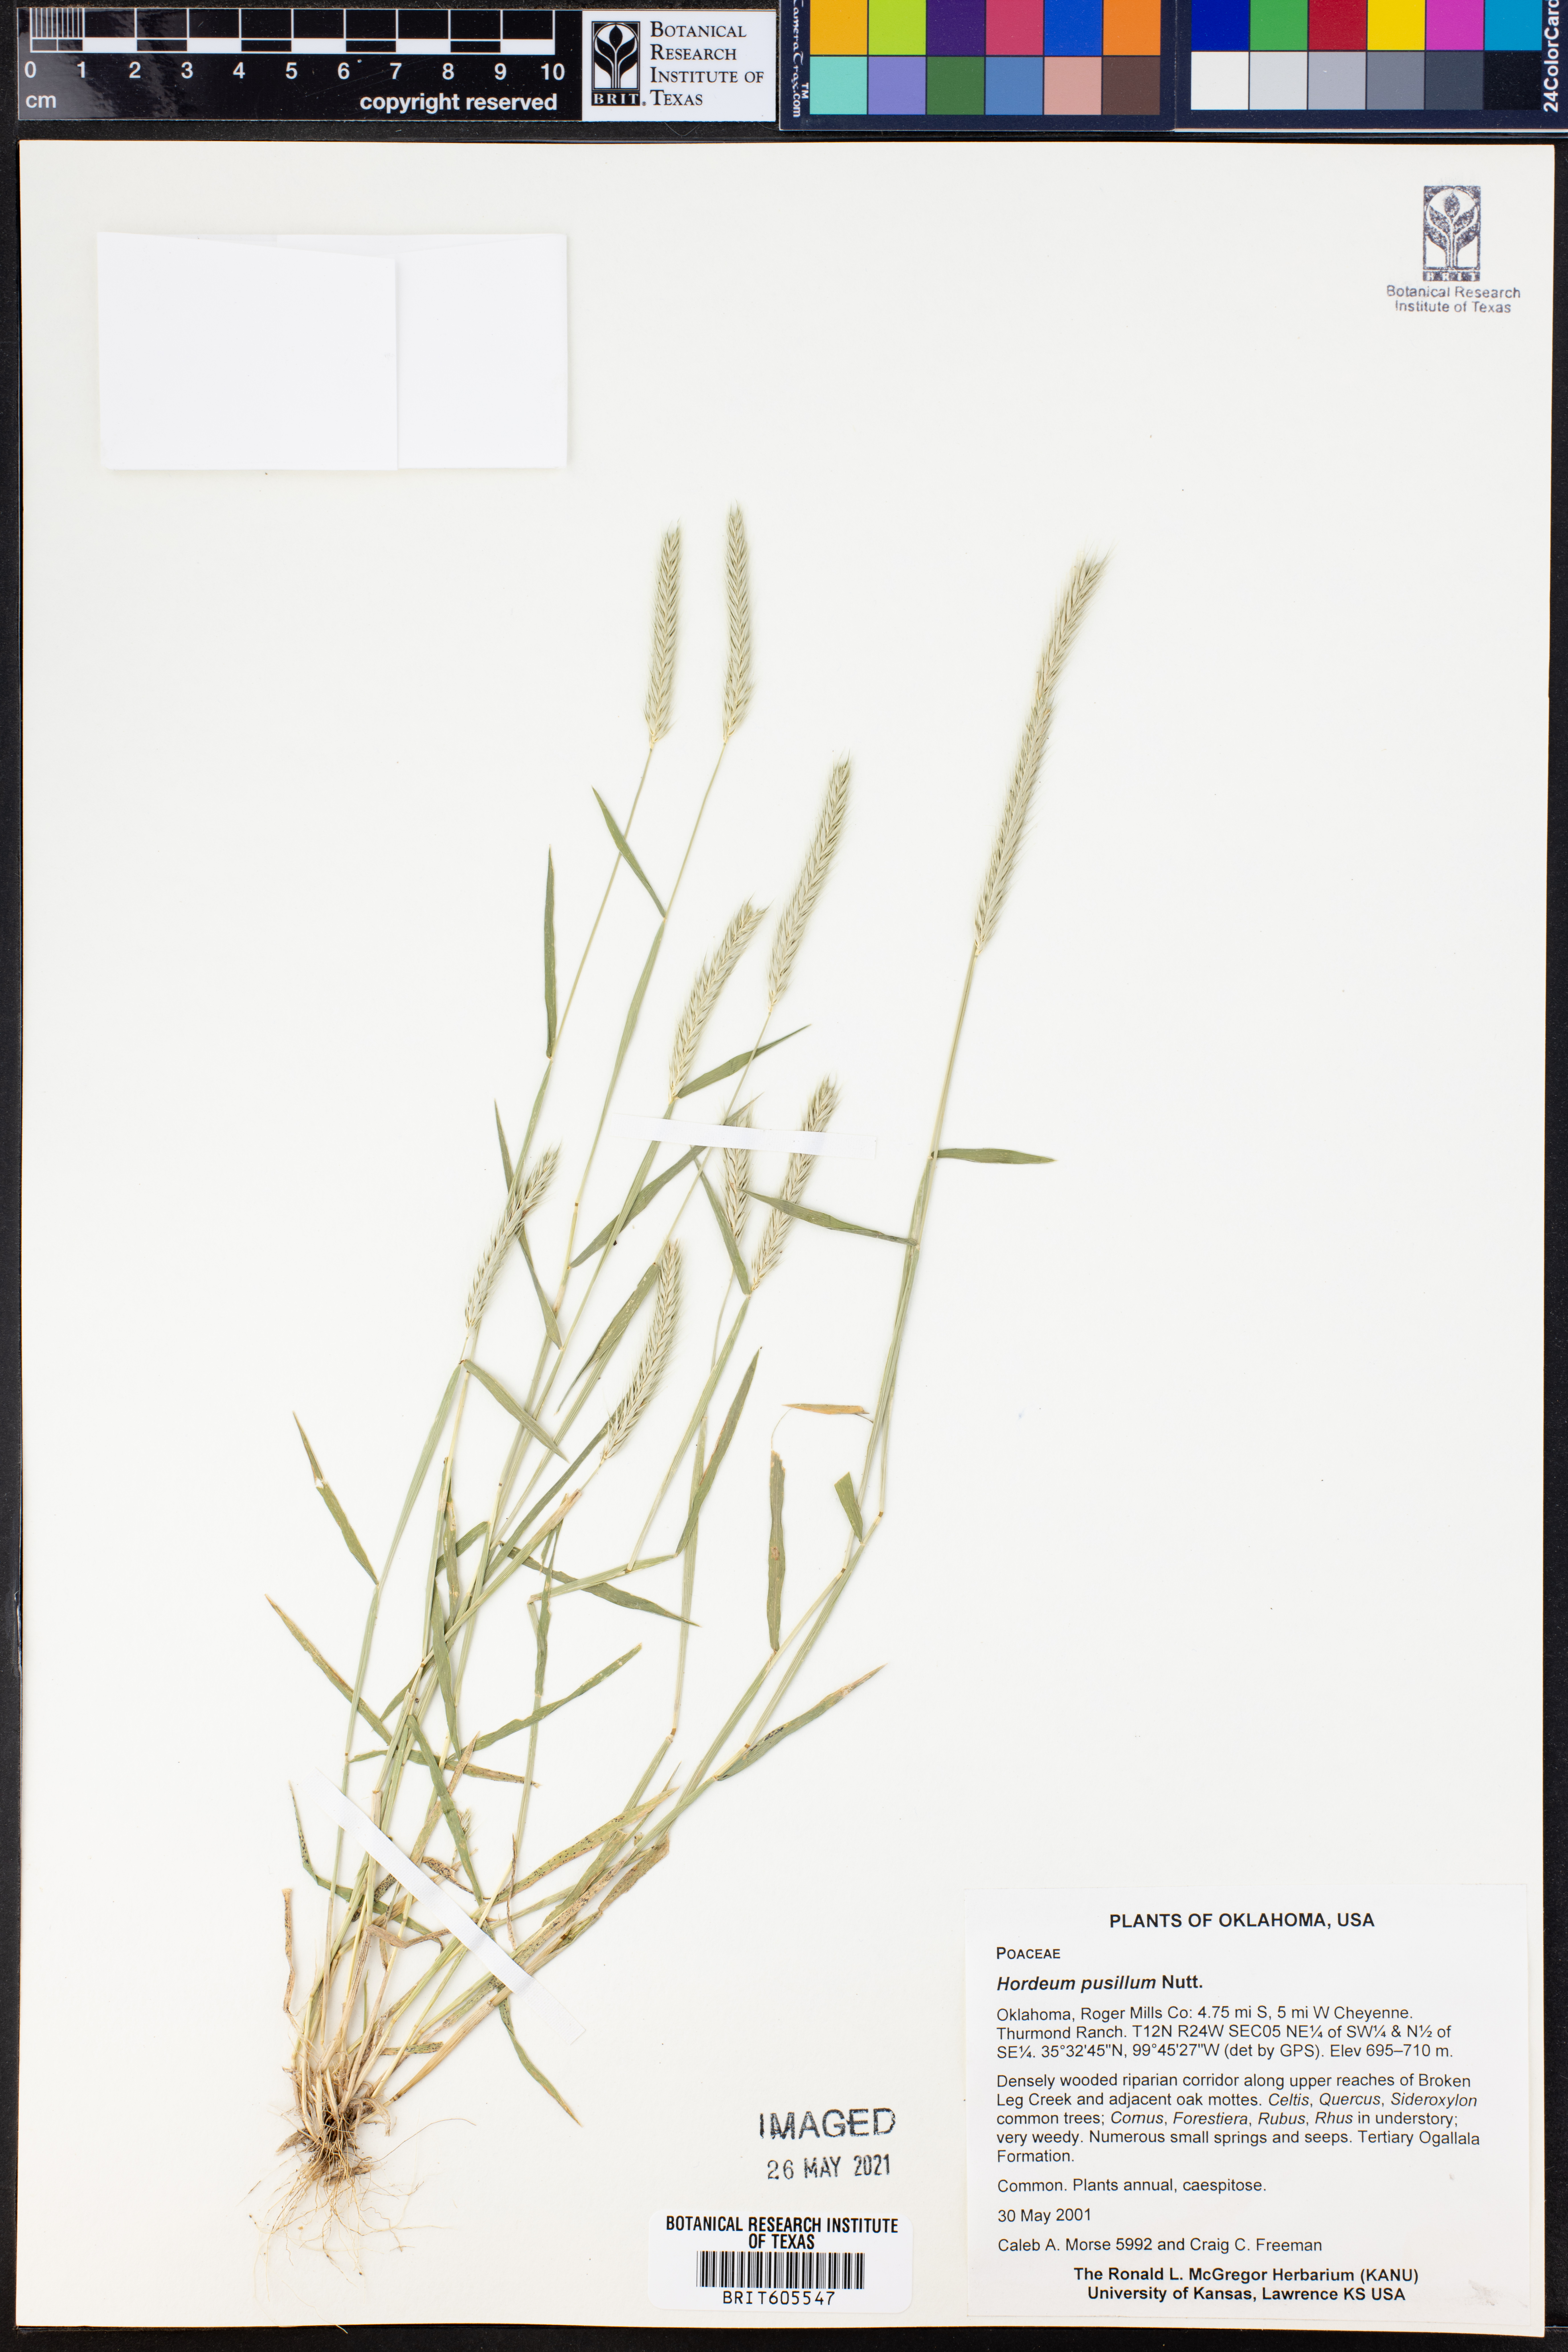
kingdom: Plantae
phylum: Tracheophyta
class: Liliopsida
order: Poales
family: Poaceae
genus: Hordeum
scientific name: Hordeum pusillum
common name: Little barley
